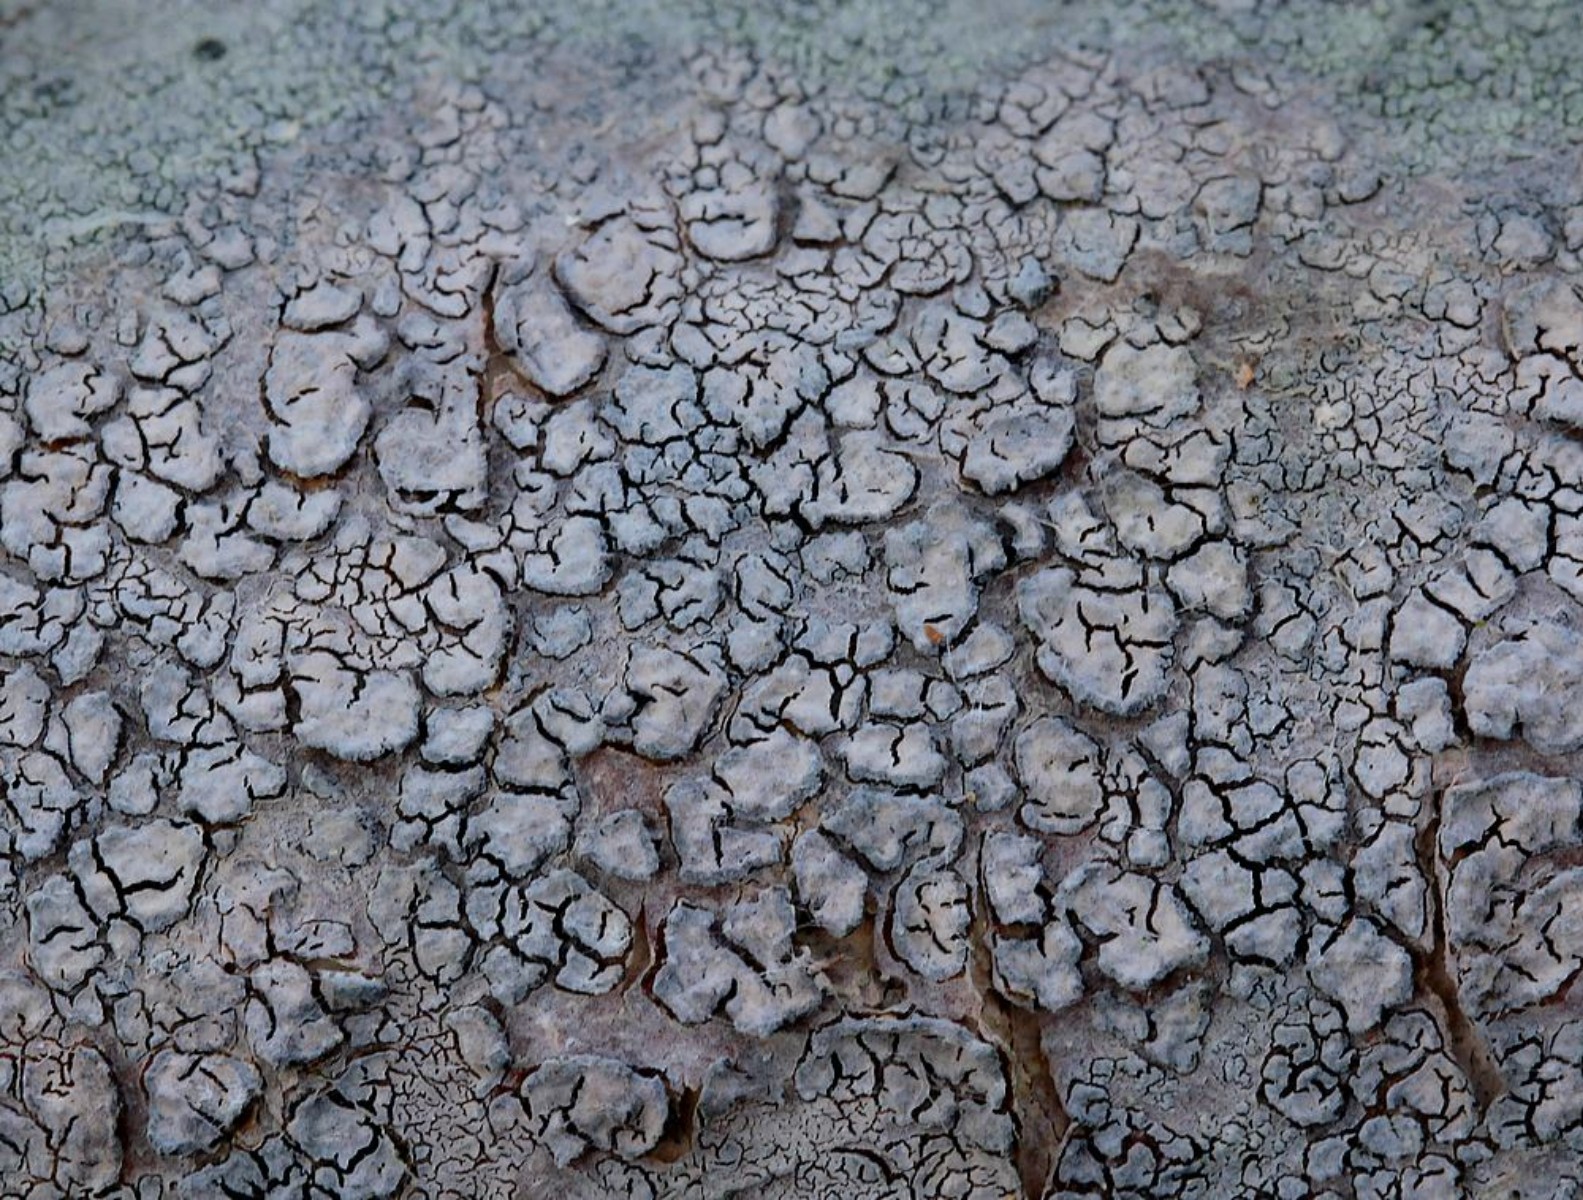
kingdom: Fungi
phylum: Basidiomycota
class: Agaricomycetes
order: Russulales
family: Peniophoraceae
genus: Peniophora
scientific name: Peniophora cinerea
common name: grå voksskind
